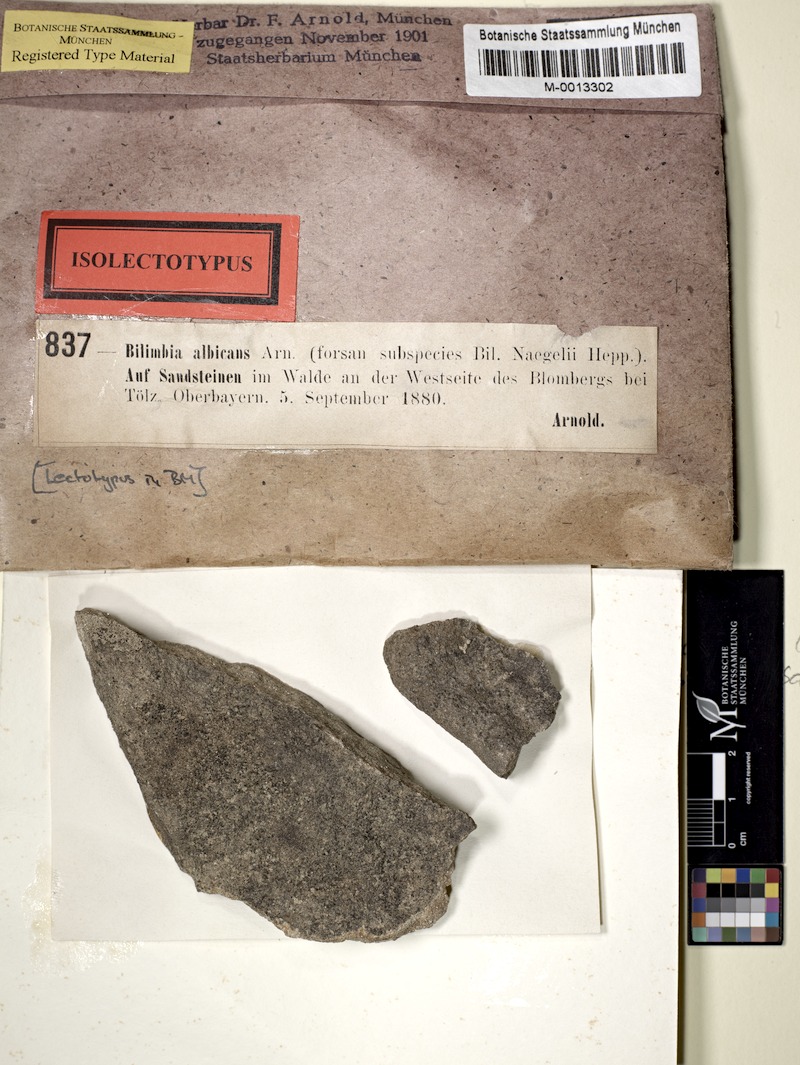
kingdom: Fungi
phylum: Ascomycota
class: Lecanoromycetes
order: Lecanorales
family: Byssolomataceae
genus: Micarea
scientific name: Micarea peliocarpa
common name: Shadow dot lichen
